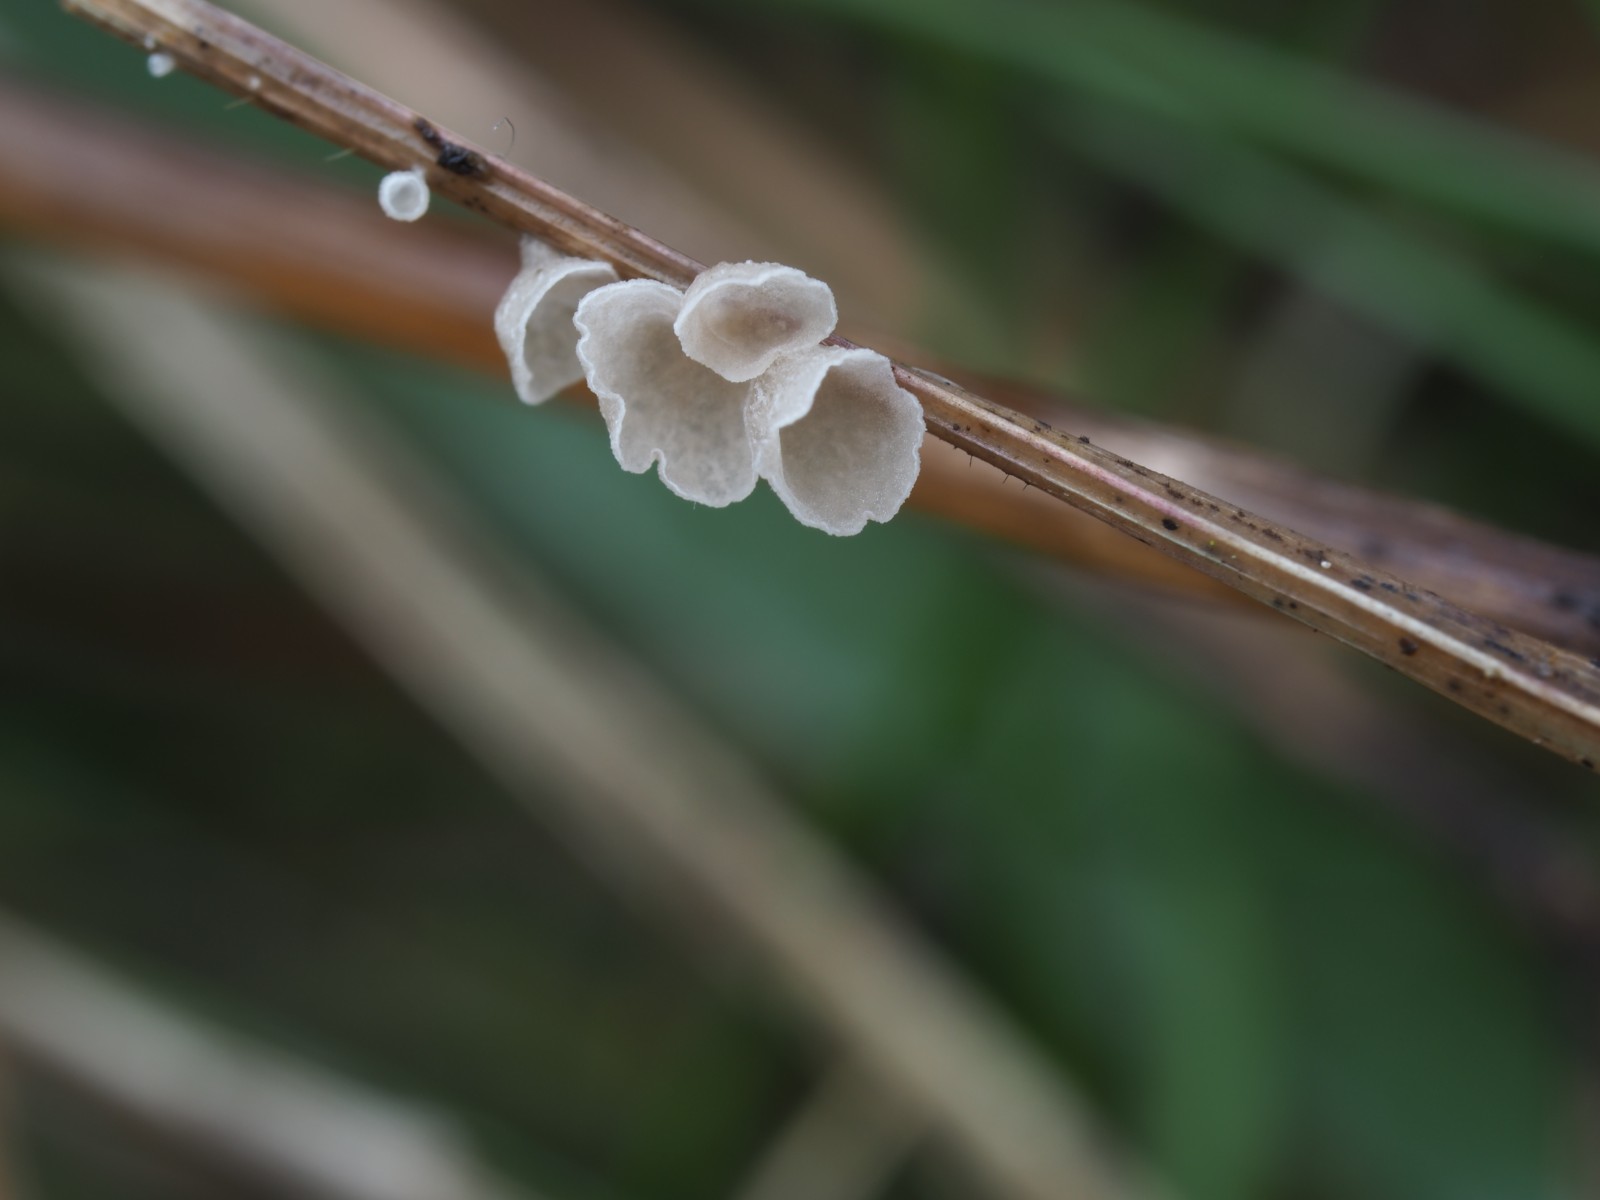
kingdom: Fungi
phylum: Basidiomycota
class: Agaricomycetes
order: Agaricales
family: Marasmiaceae
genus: Calyptella
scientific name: Calyptella
